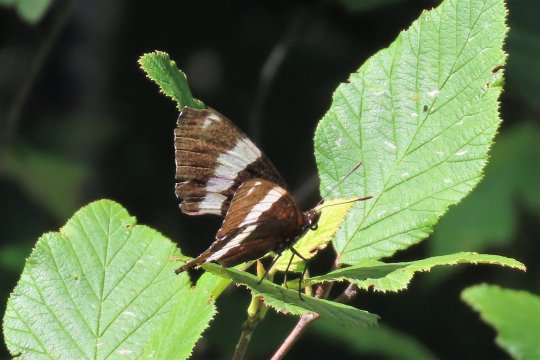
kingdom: Animalia
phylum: Arthropoda
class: Insecta
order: Lepidoptera
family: Nymphalidae
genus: Limenitis
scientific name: Limenitis arthemis
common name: Red-spotted Admiral
